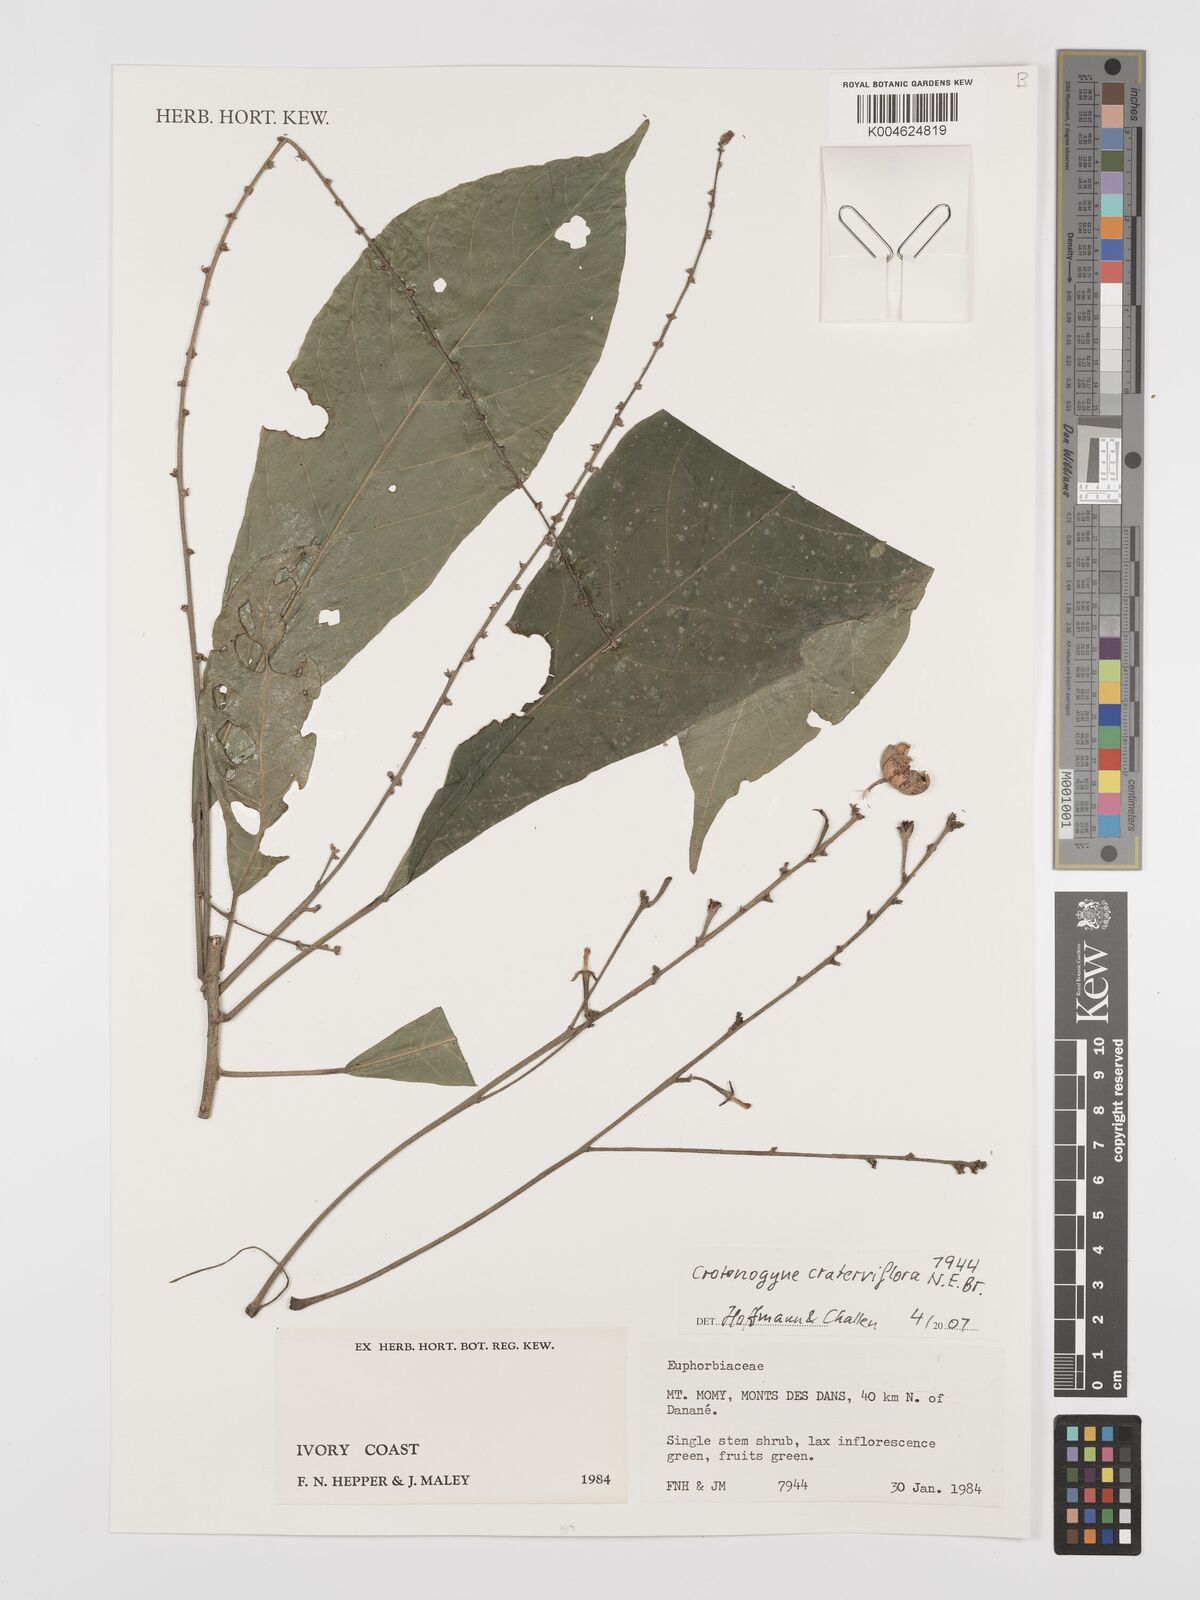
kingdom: Plantae
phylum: Tracheophyta
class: Magnoliopsida
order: Malpighiales
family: Euphorbiaceae
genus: Crotonogyne
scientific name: Crotonogyne caterviflora
